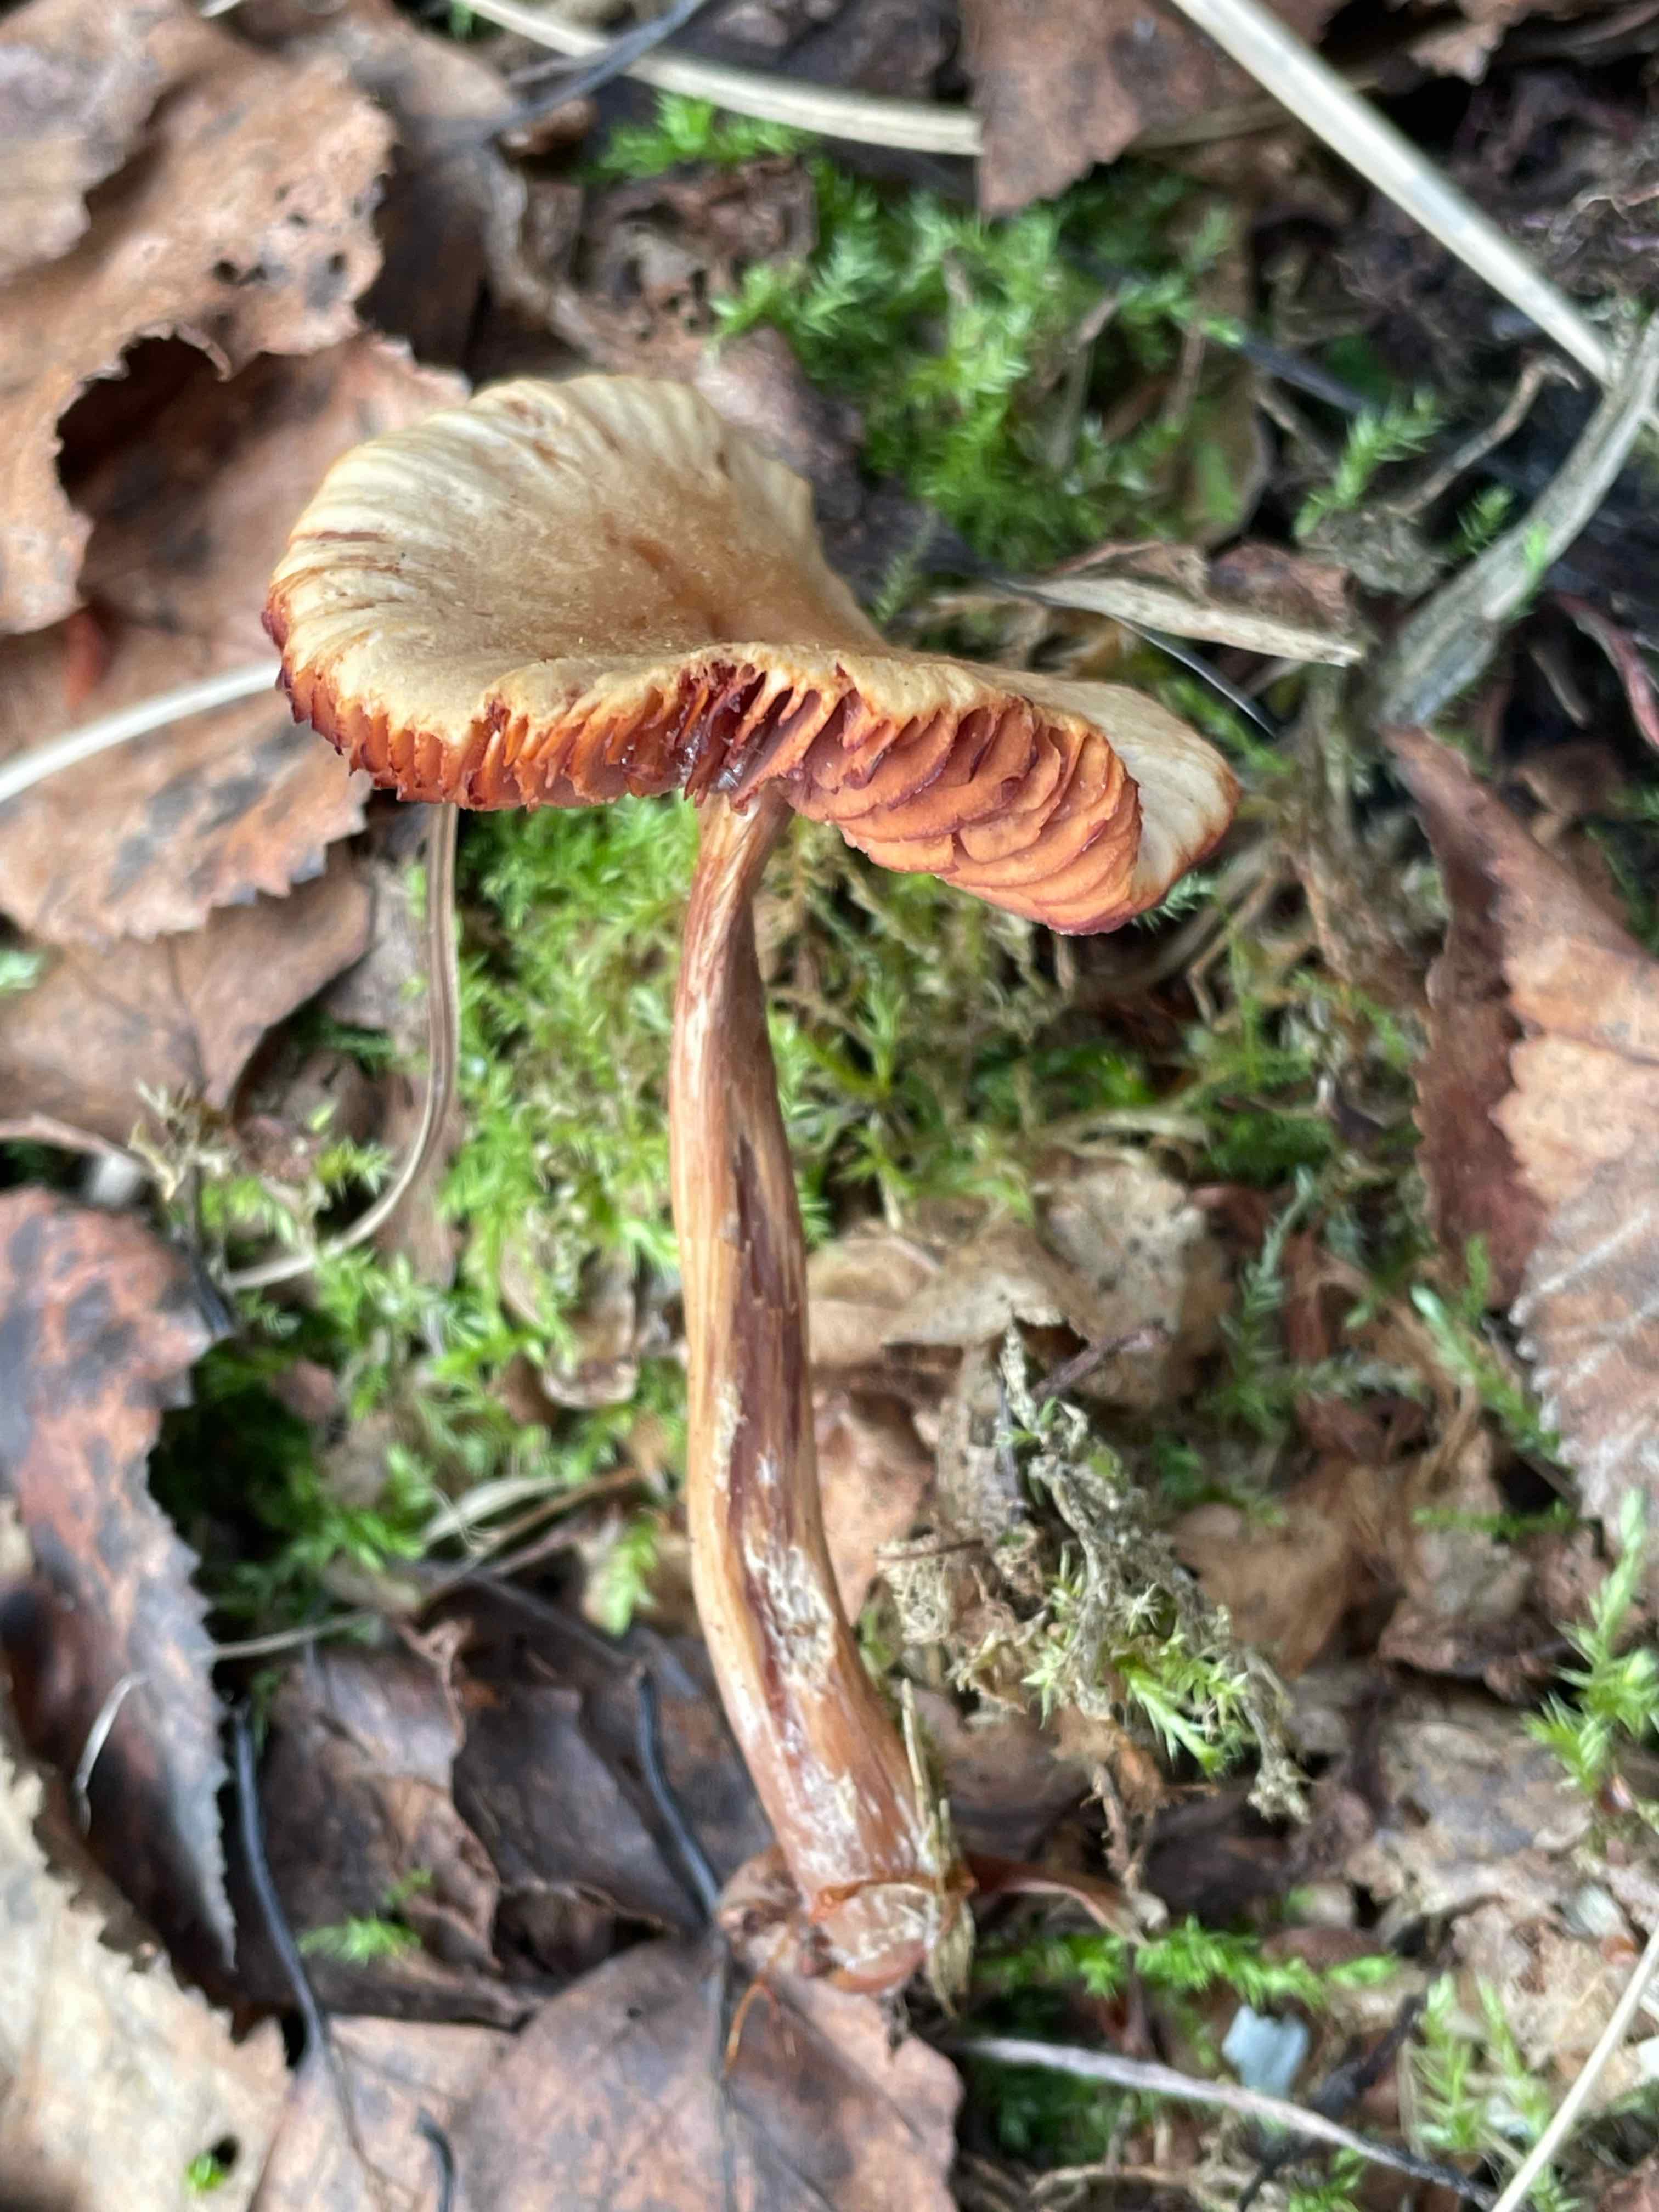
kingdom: Fungi
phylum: Basidiomycota
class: Agaricomycetes
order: Agaricales
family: Hydnangiaceae
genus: Laccaria
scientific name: Laccaria
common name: ametysthat
